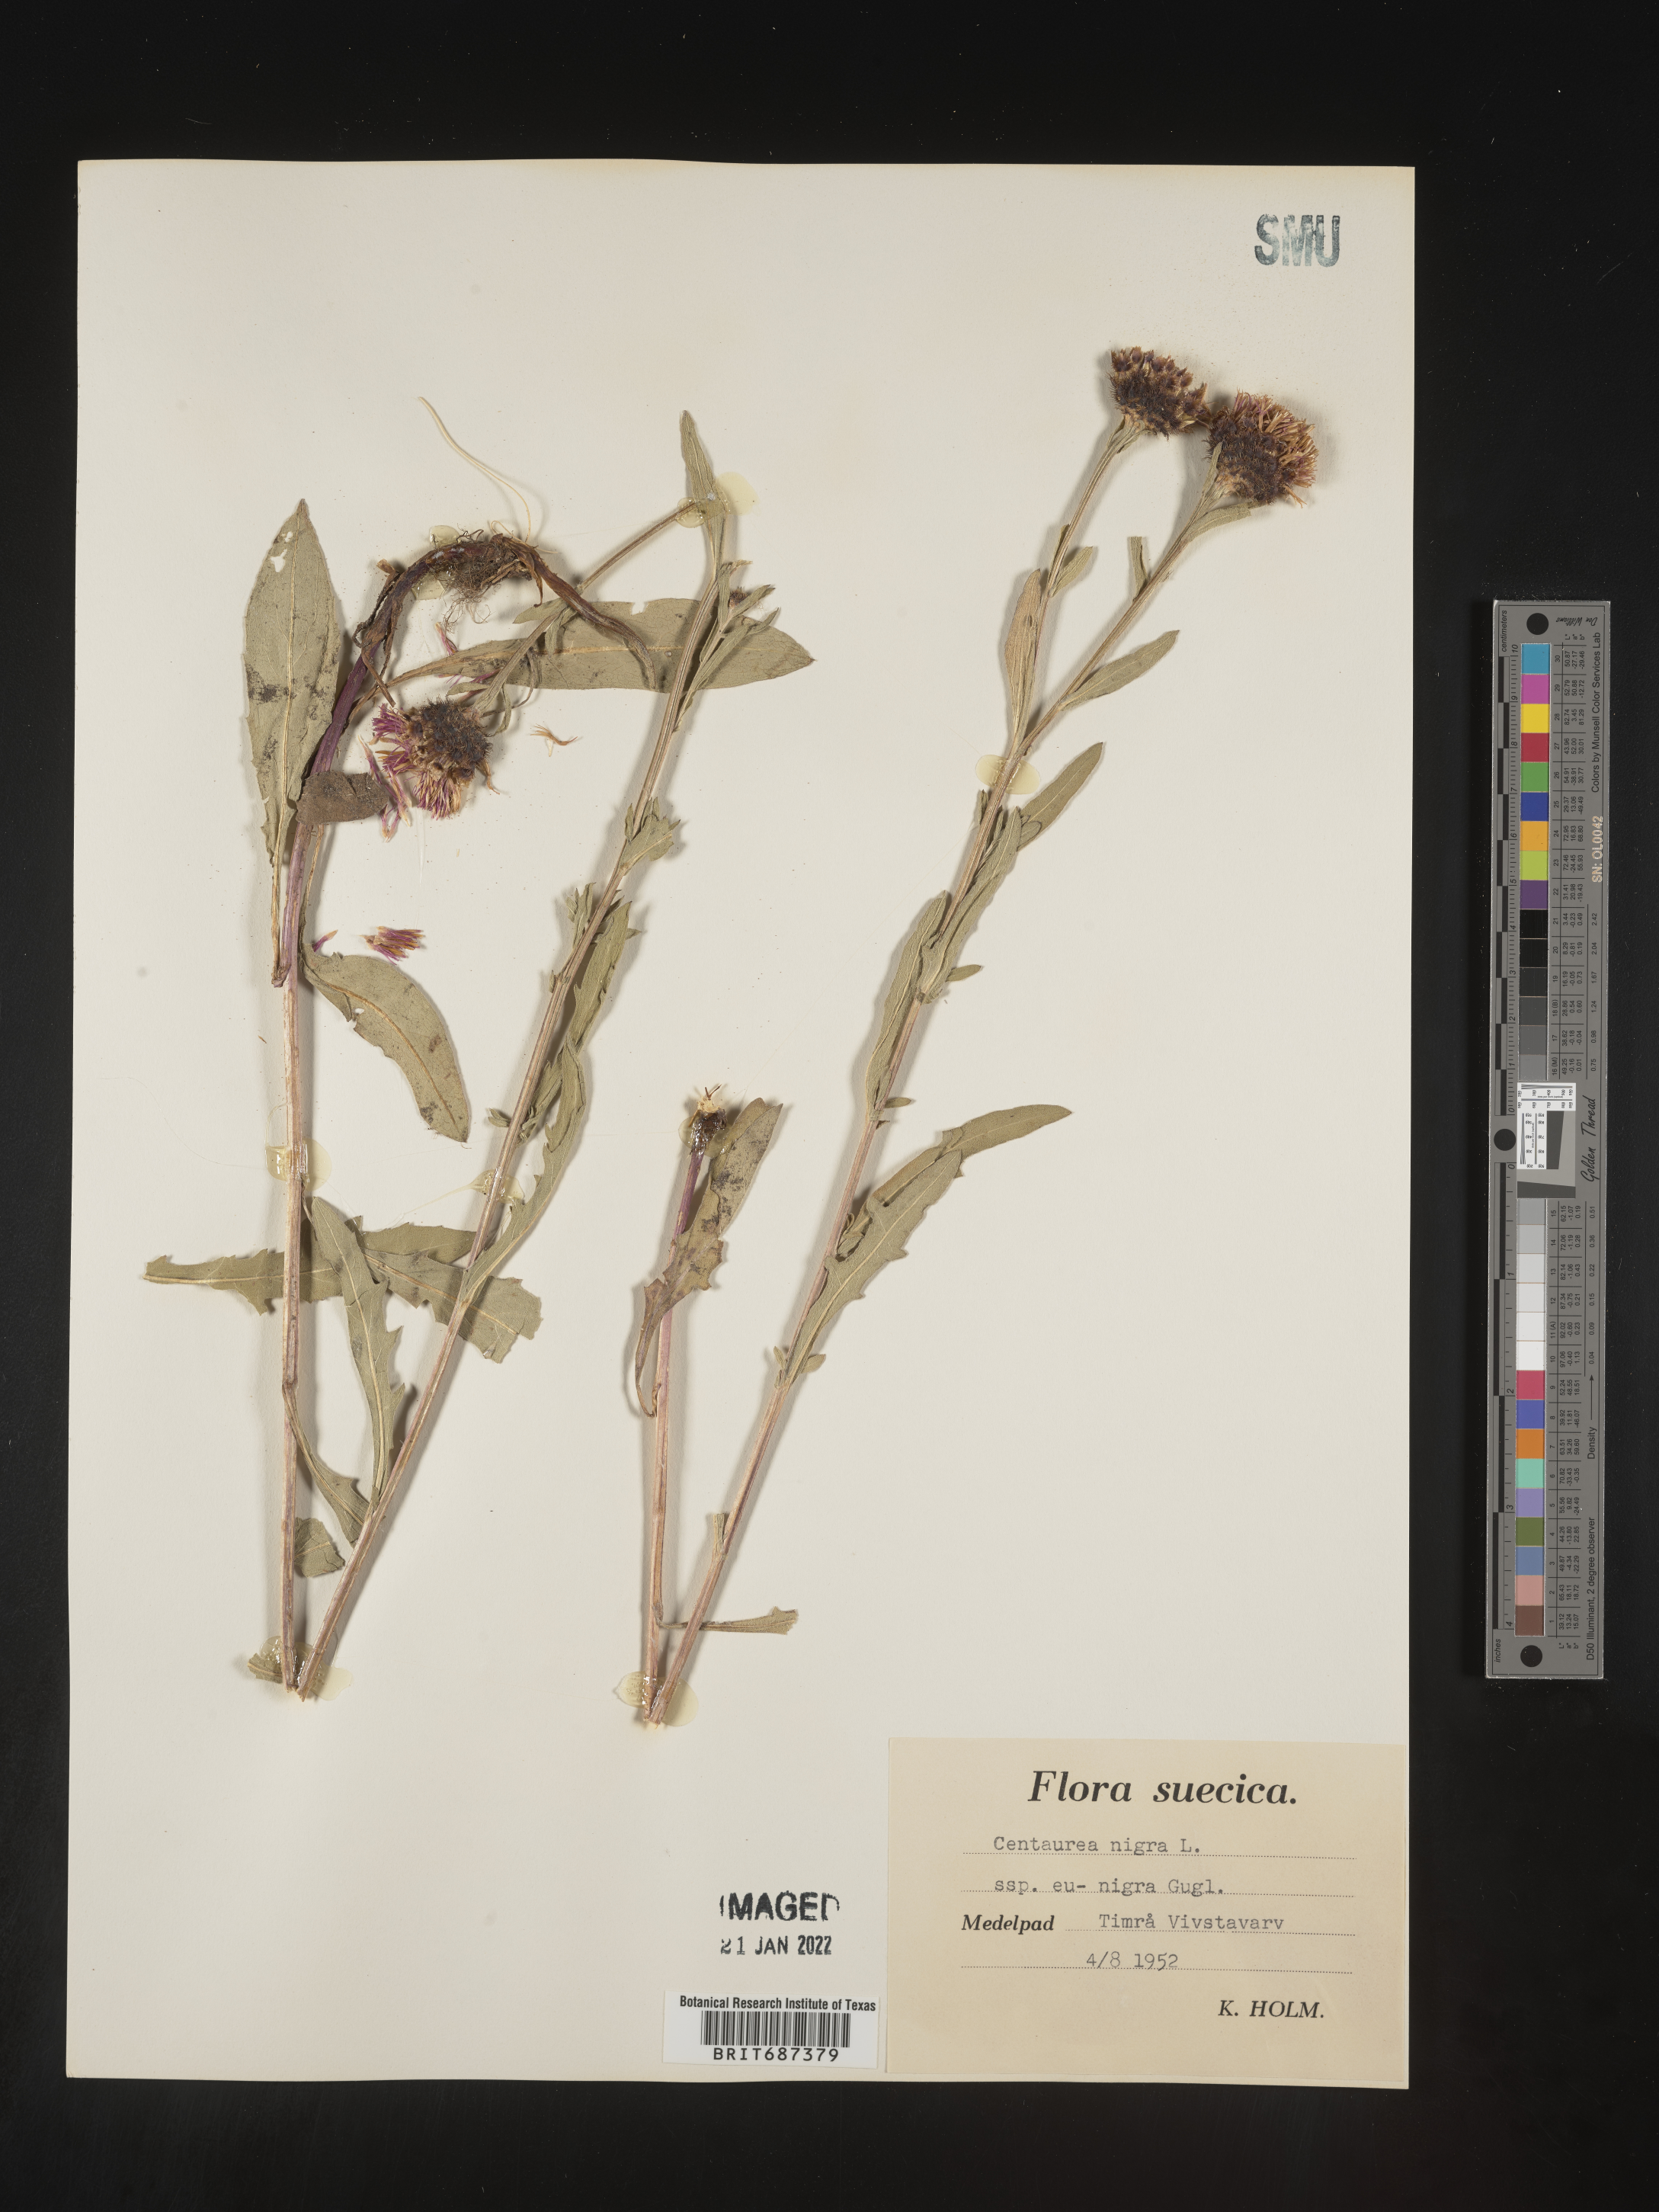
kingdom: Plantae
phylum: Tracheophyta
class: Magnoliopsida
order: Asterales
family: Asteraceae
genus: Centaurea
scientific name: Centaurea
